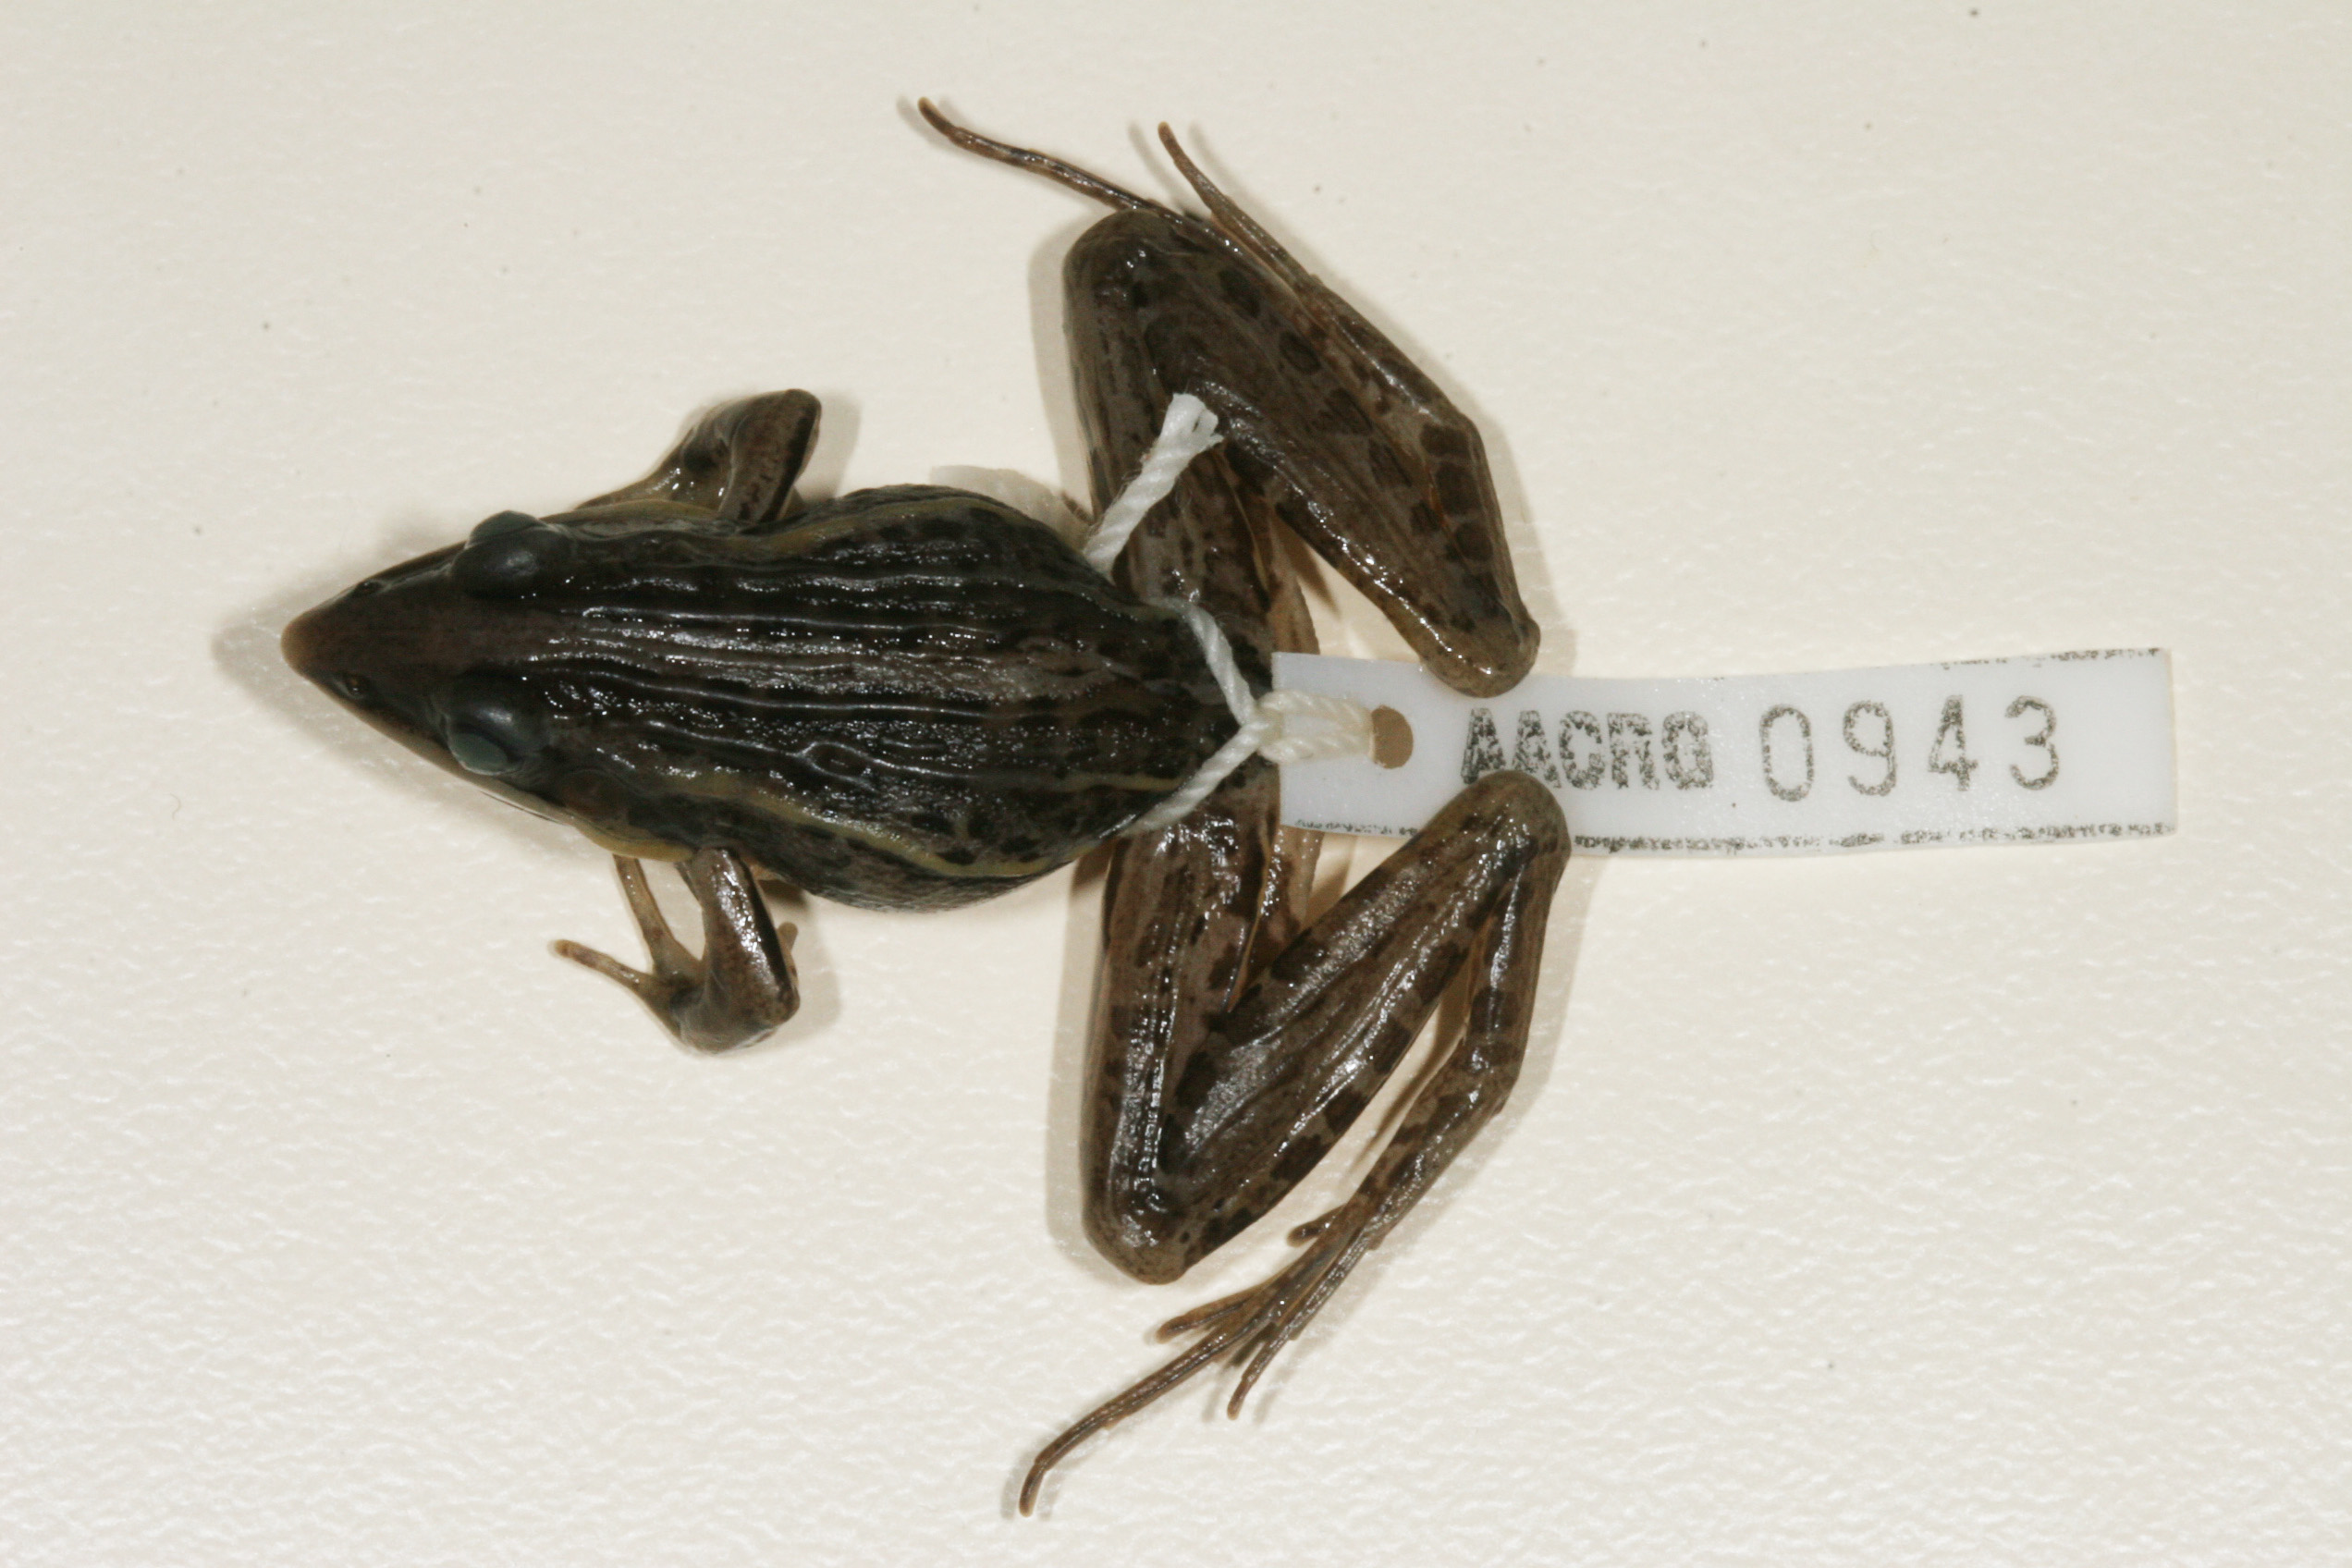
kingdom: Animalia
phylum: Chordata
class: Amphibia
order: Anura
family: Ptychadenidae
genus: Ptychadena
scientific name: Ptychadena guibei
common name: Guibe's grassland frog
